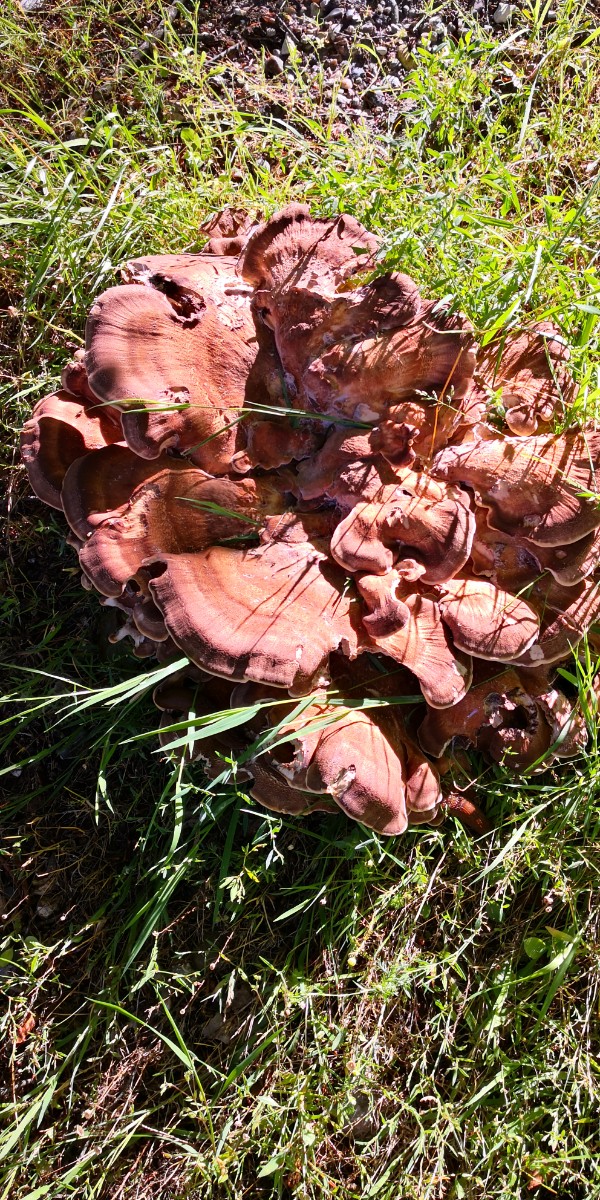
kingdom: Fungi
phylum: Basidiomycota
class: Agaricomycetes
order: Polyporales
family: Meripilaceae
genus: Meripilus
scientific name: Meripilus giganteus
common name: kæmpeporesvamp
